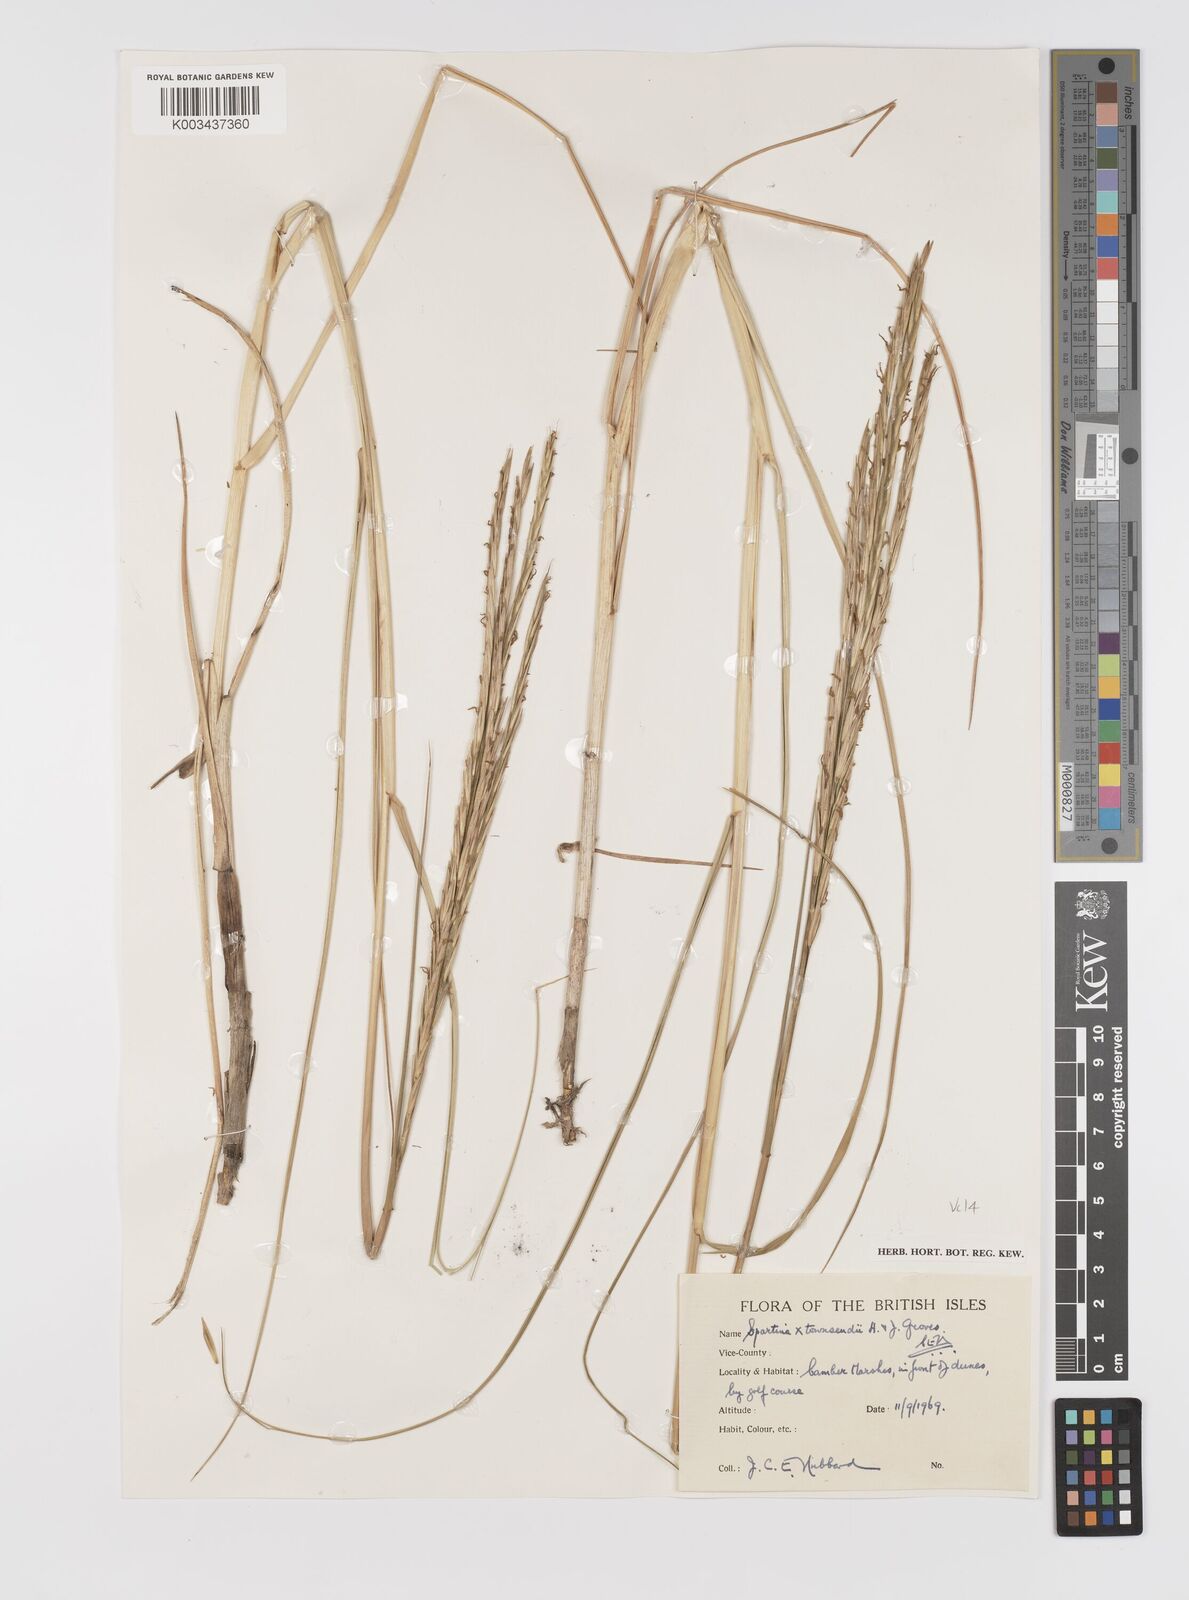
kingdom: Plantae
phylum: Tracheophyta
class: Liliopsida
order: Poales
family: Poaceae
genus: Sporobolus
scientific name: Sporobolus townsendii
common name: Townsend's cordgrass
